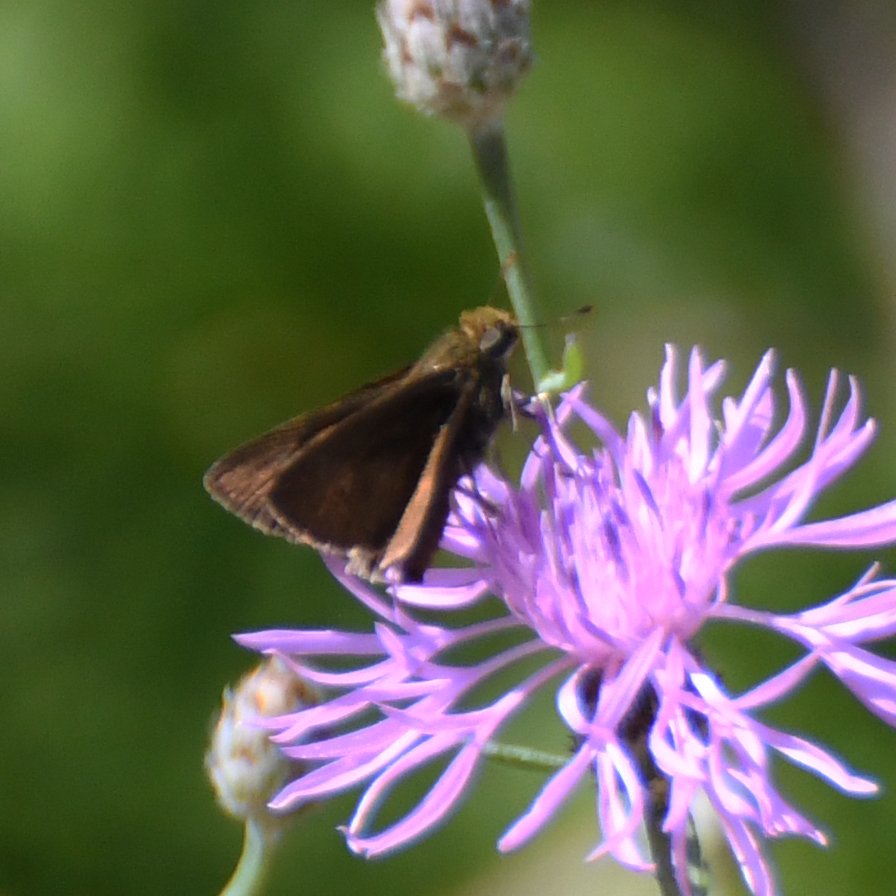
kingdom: Animalia
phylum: Arthropoda
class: Insecta
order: Lepidoptera
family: Hesperiidae
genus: Euphyes
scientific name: Euphyes vestris
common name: Dun Skipper
